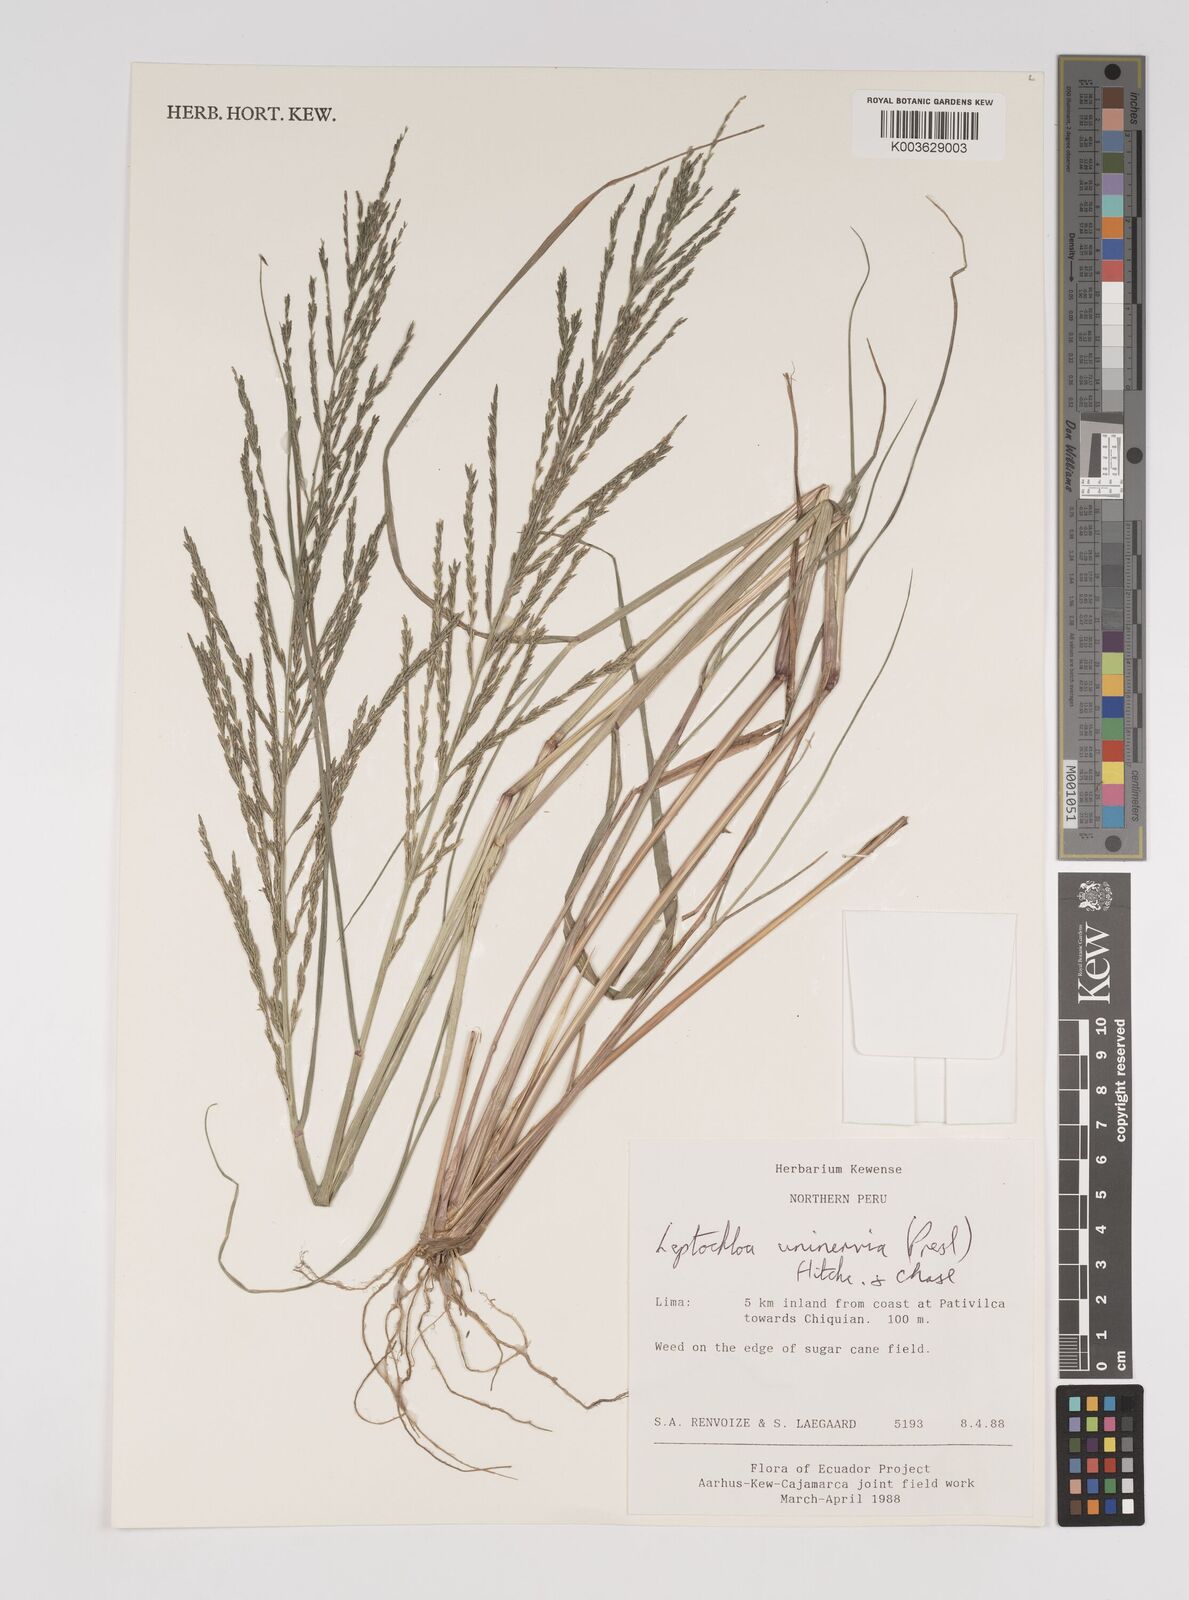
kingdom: Plantae
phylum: Tracheophyta
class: Liliopsida
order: Poales
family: Poaceae
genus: Diplachne
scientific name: Diplachne fusca
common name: Brown beetle grass
